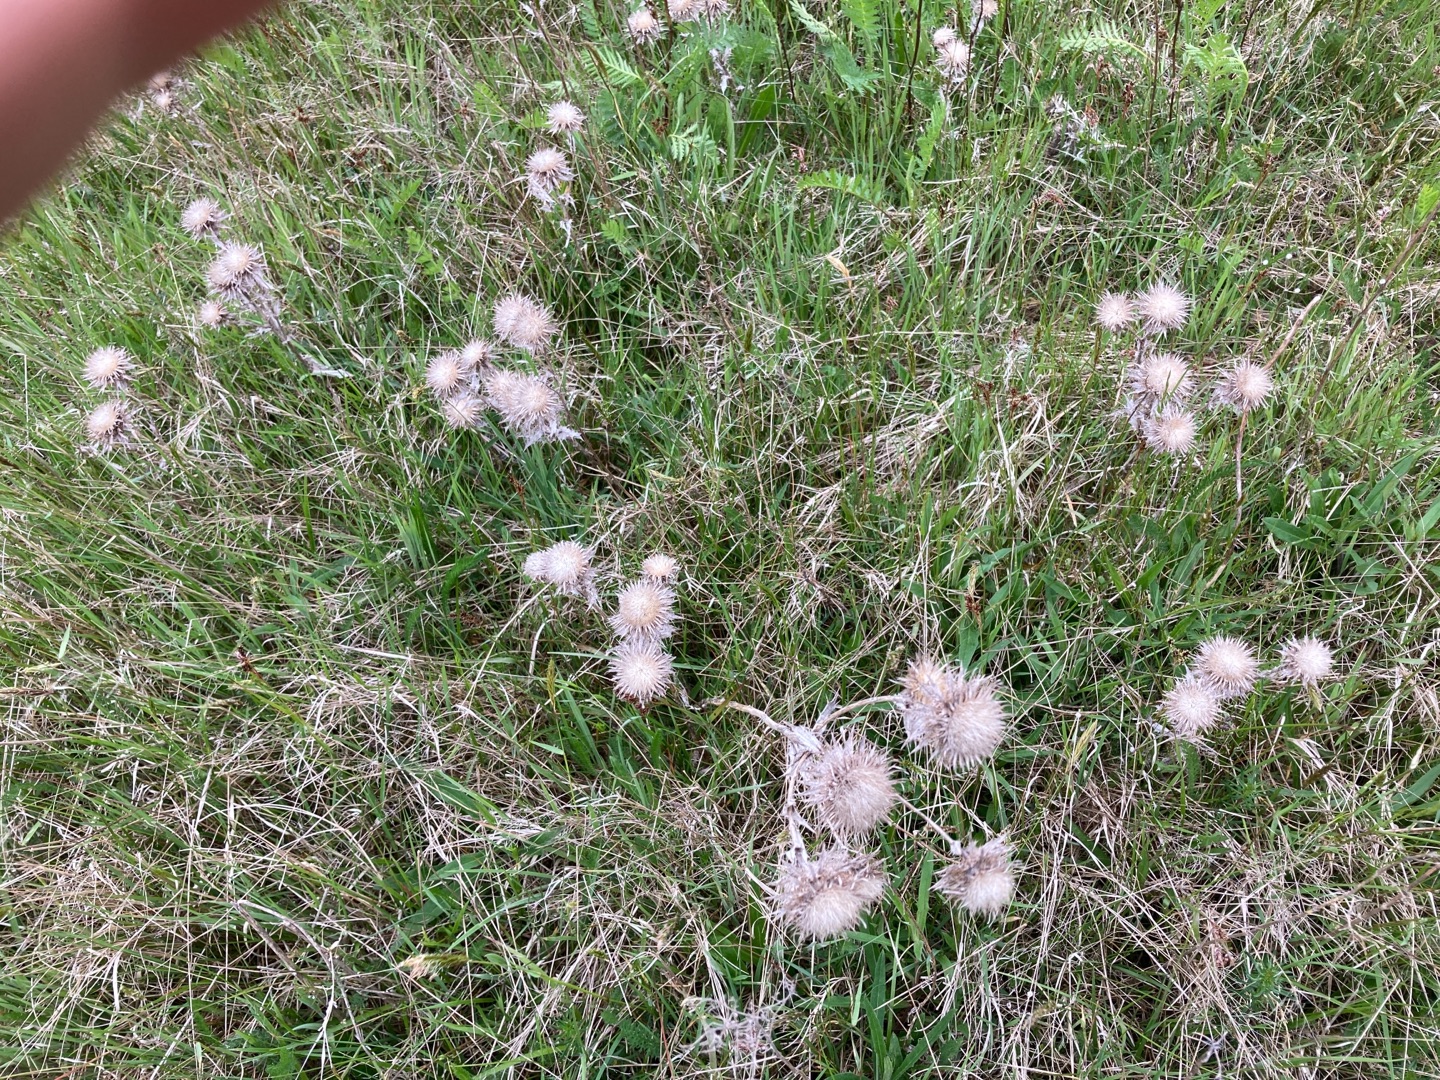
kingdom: Plantae
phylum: Tracheophyta
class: Magnoliopsida
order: Asterales
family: Asteraceae
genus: Carlina
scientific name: Carlina vulgaris
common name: Bakketidsel
